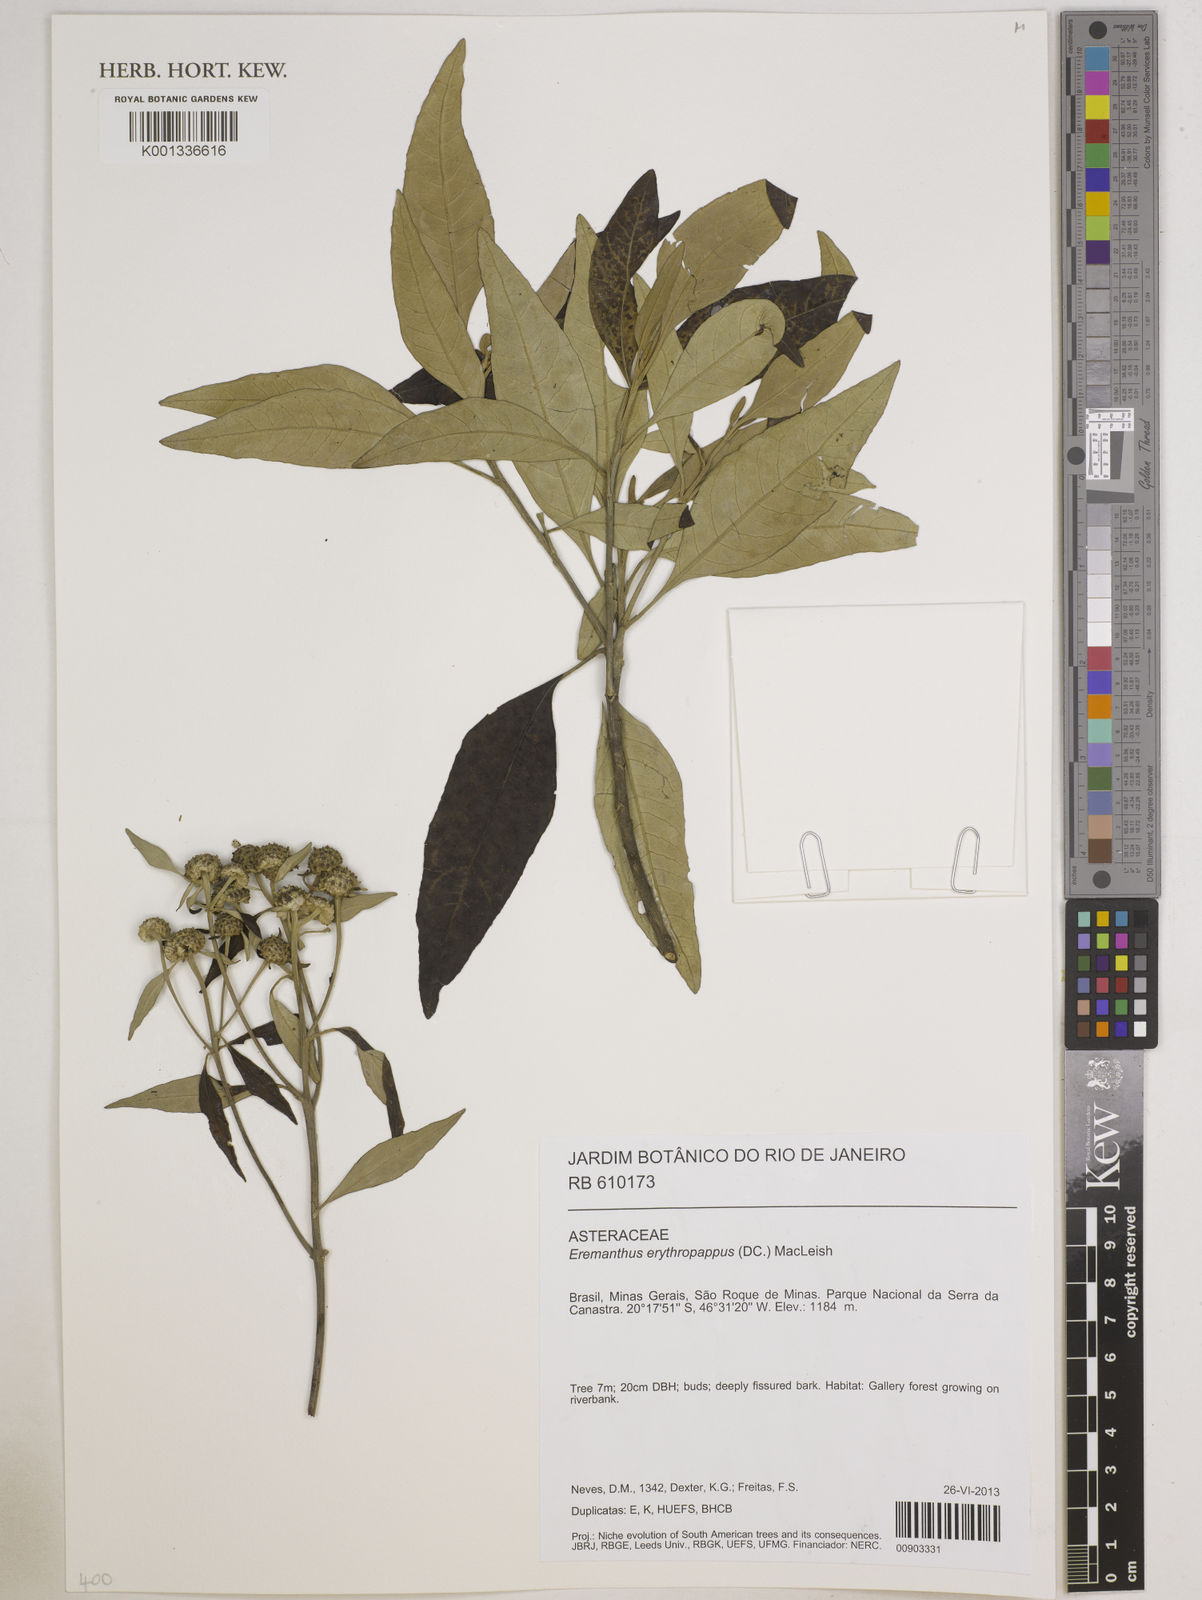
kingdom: Plantae
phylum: Tracheophyta
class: Magnoliopsida
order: Asterales
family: Asteraceae
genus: Eremanthus
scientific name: Eremanthus erythropappus
